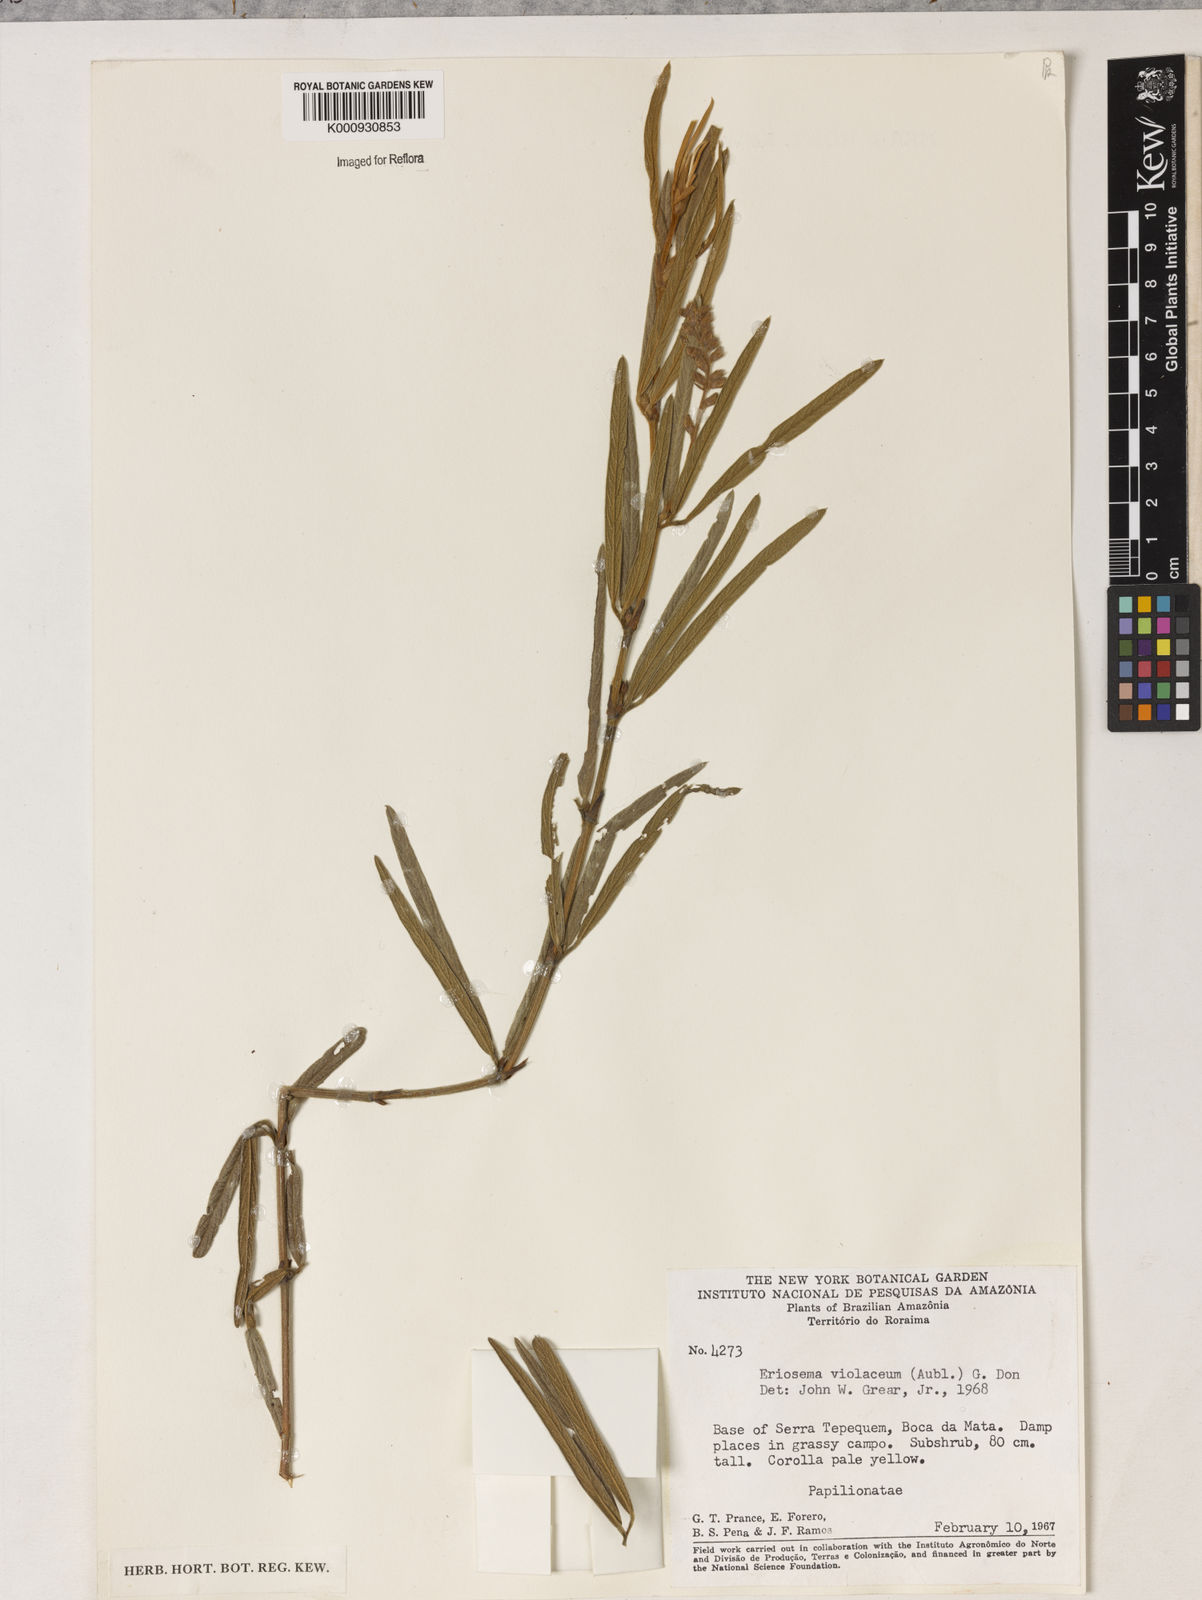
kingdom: Plantae
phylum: Tracheophyta
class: Magnoliopsida
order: Fabales
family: Fabaceae
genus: Eriosema
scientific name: Eriosema violaceum
